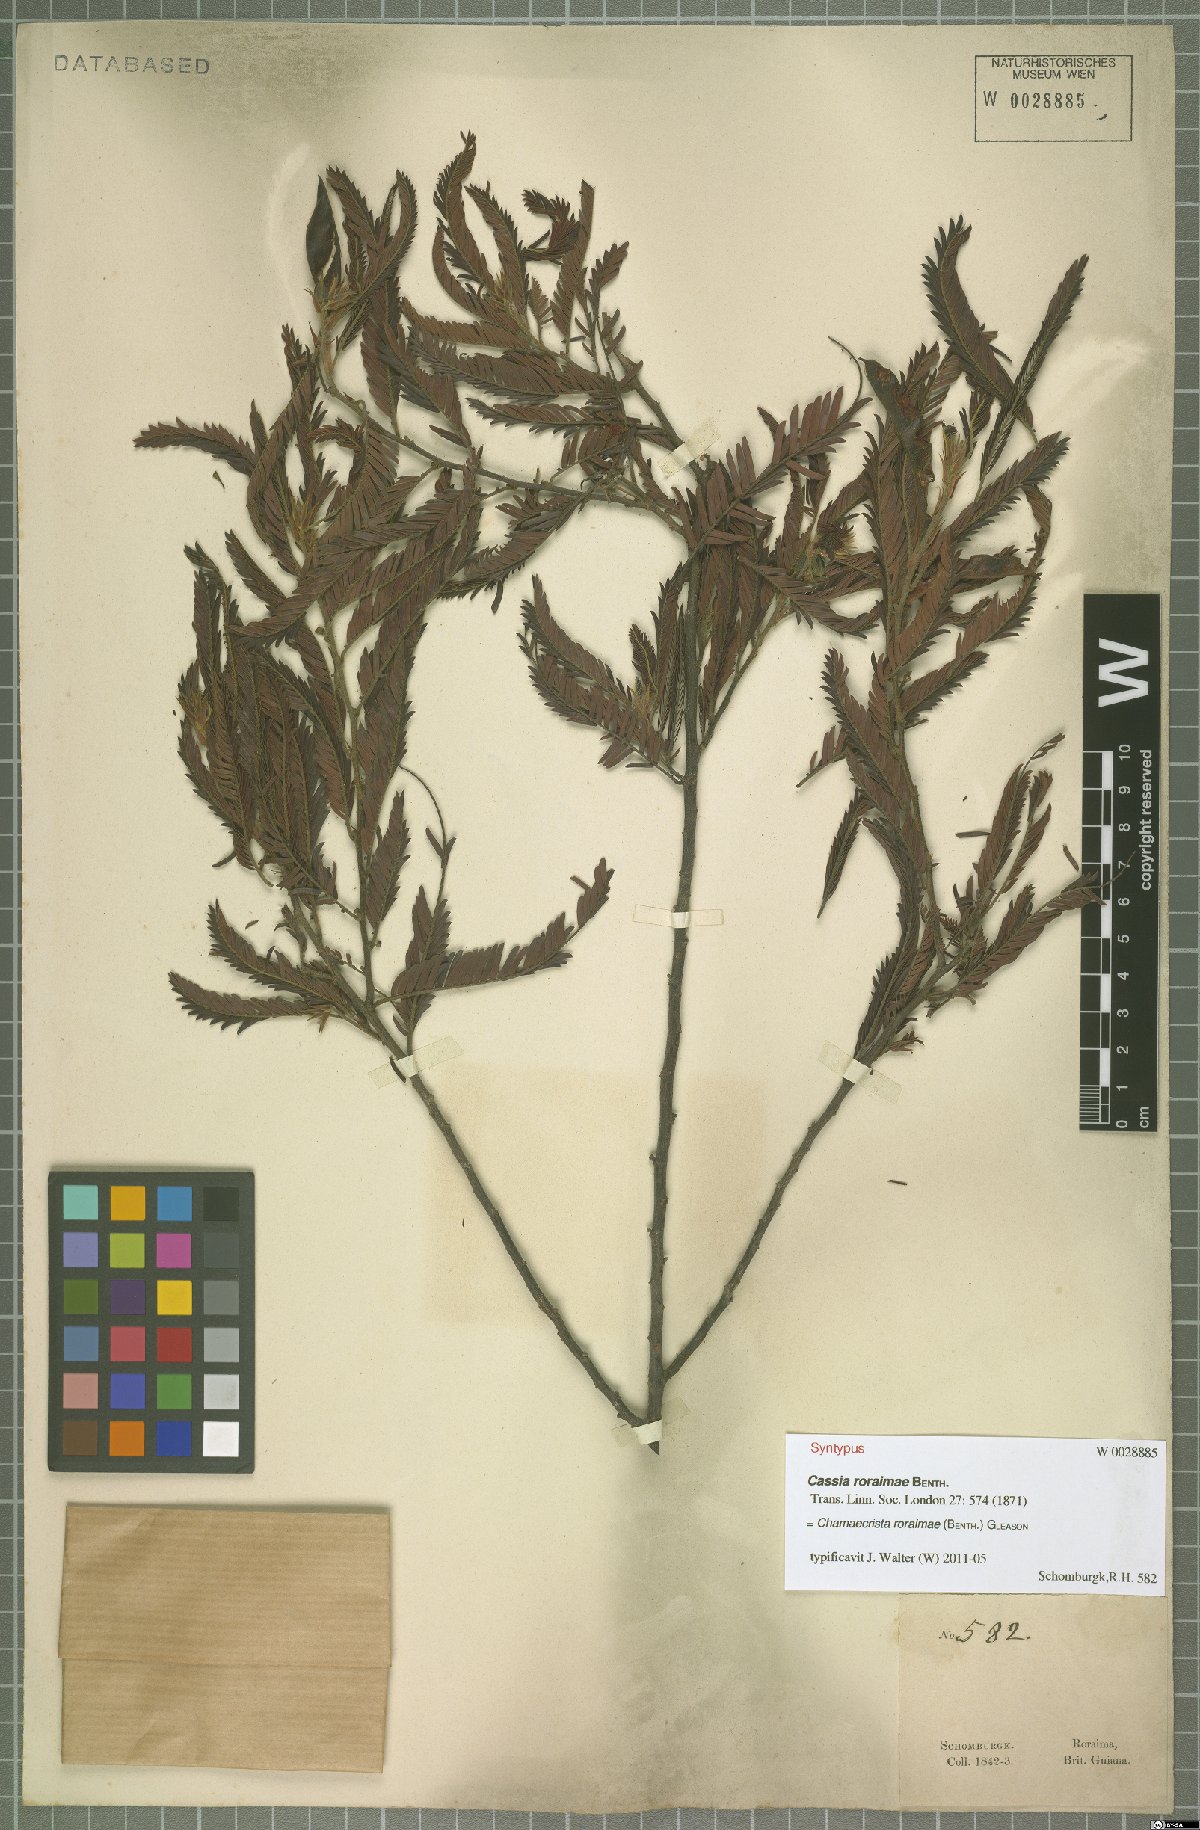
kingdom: Plantae
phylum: Tracheophyta
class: Magnoliopsida
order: Fabales
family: Fabaceae
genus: Chamaecrista
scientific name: Chamaecrista roraimae
